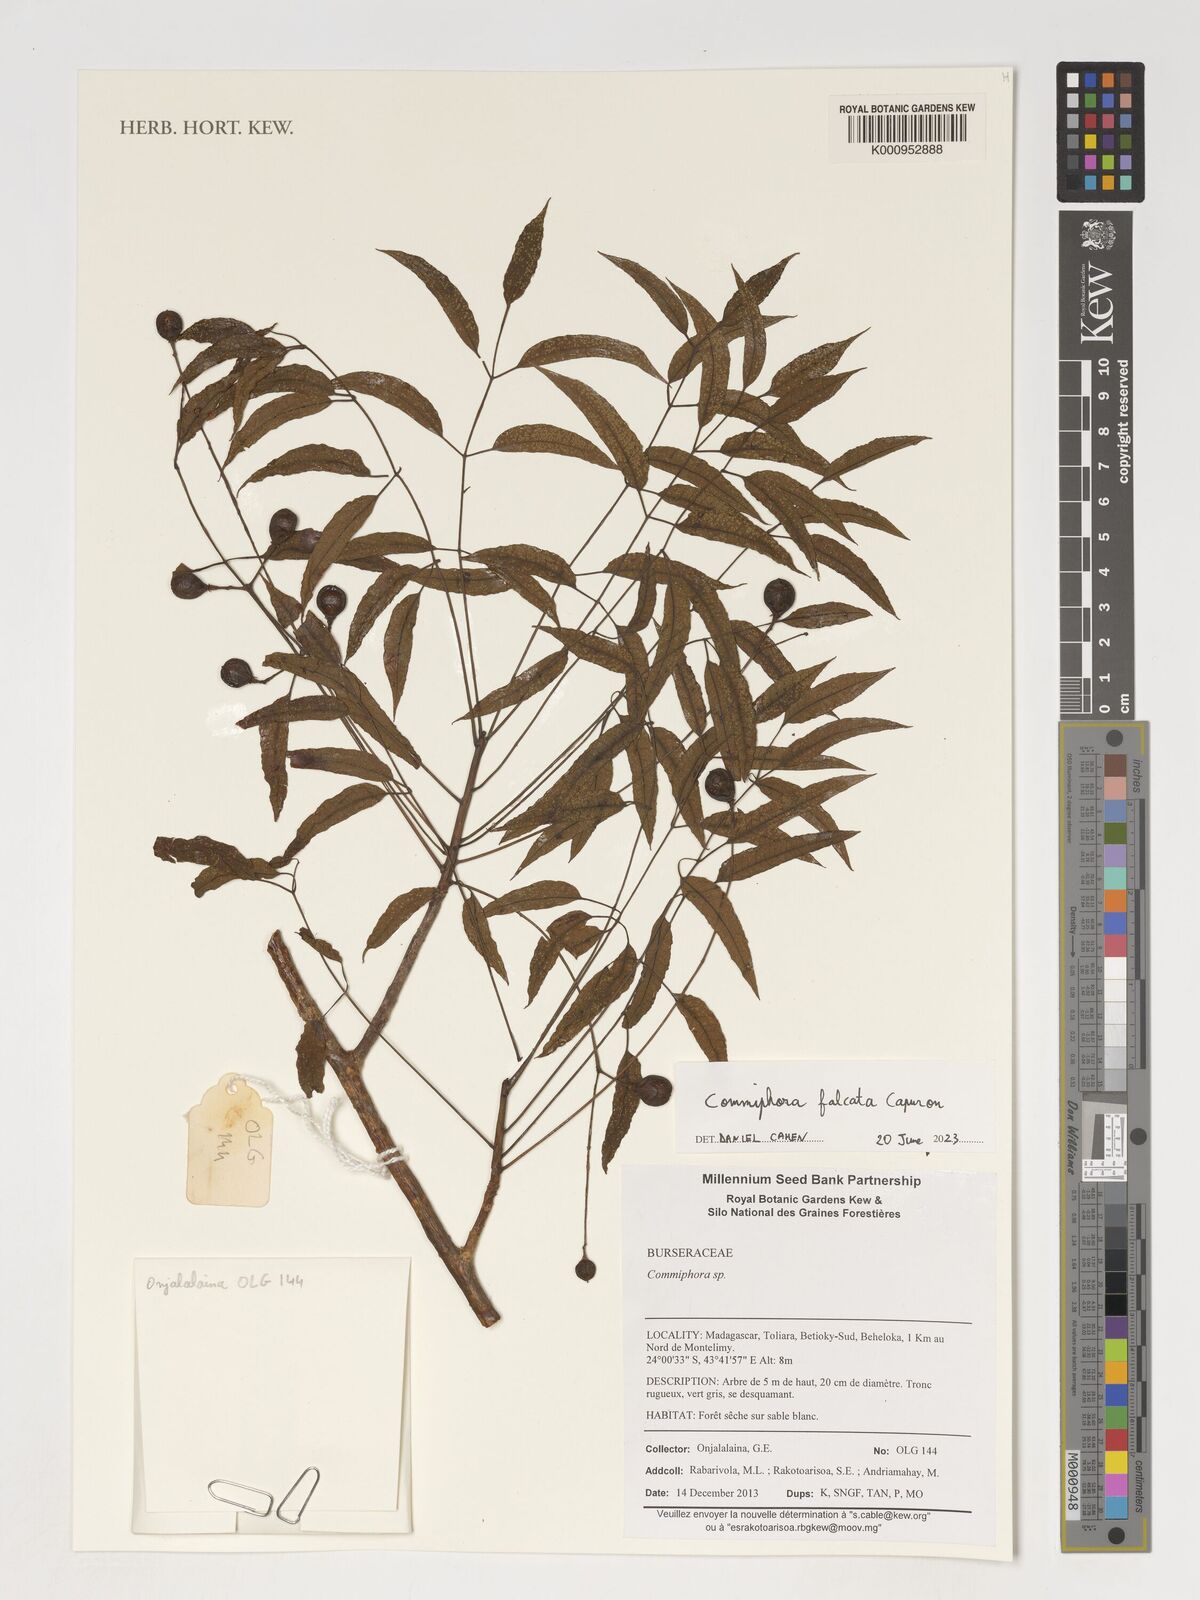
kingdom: Plantae
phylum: Tracheophyta
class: Magnoliopsida
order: Sapindales
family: Burseraceae
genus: Commiphora
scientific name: Commiphora
